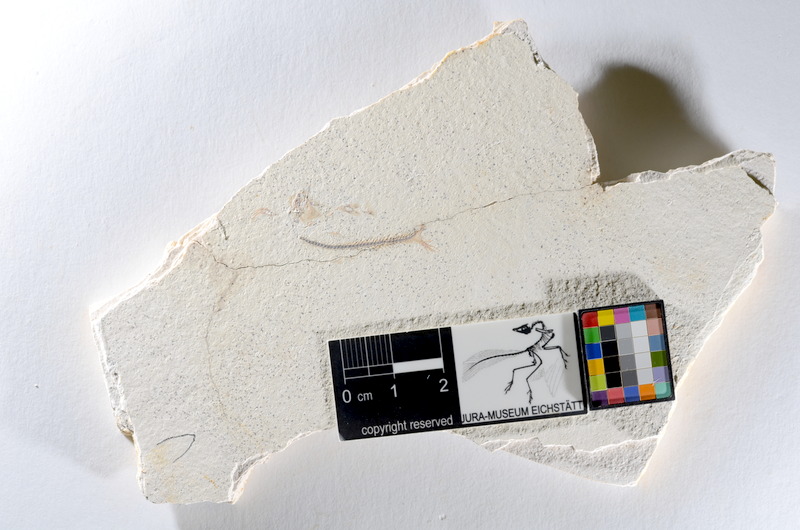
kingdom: Animalia
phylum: Chordata
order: Salmoniformes
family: Orthogonikleithridae
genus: Orthogonikleithrus
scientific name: Orthogonikleithrus hoelli
